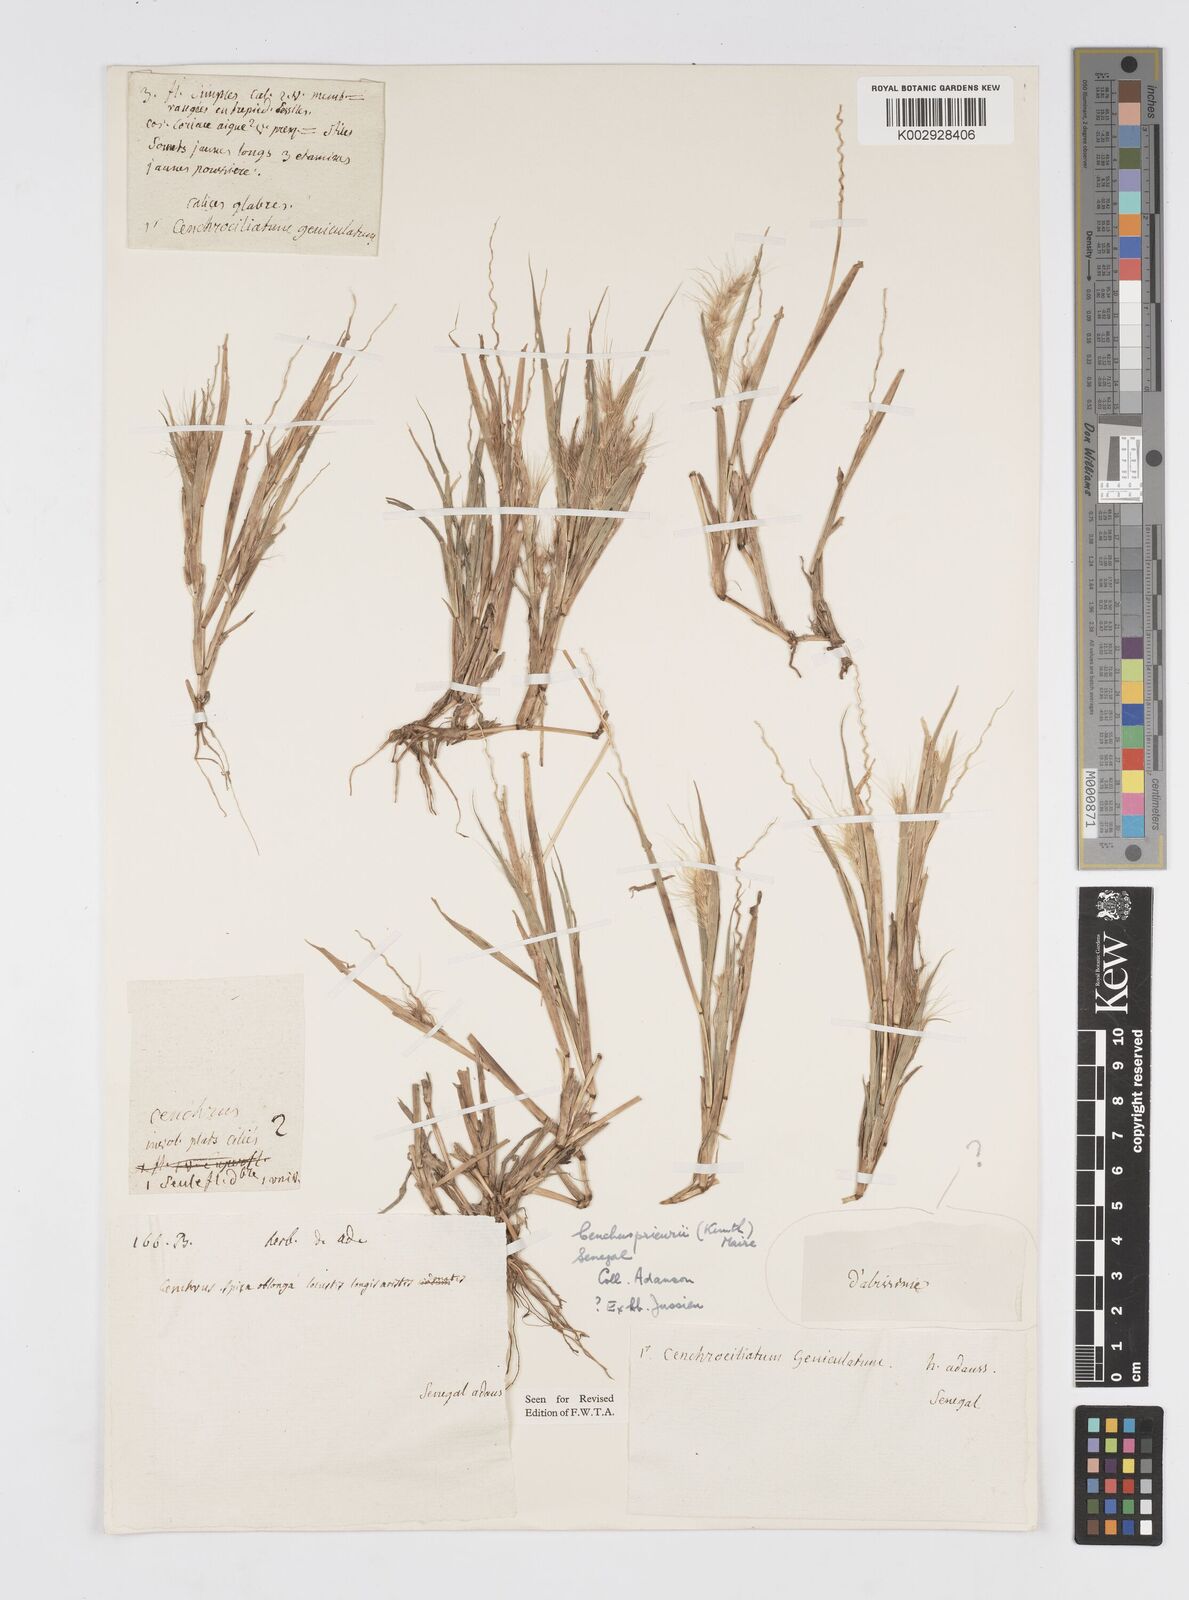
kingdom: Plantae
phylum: Tracheophyta
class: Liliopsida
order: Poales
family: Poaceae
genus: Cenchrus
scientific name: Cenchrus prieurii
